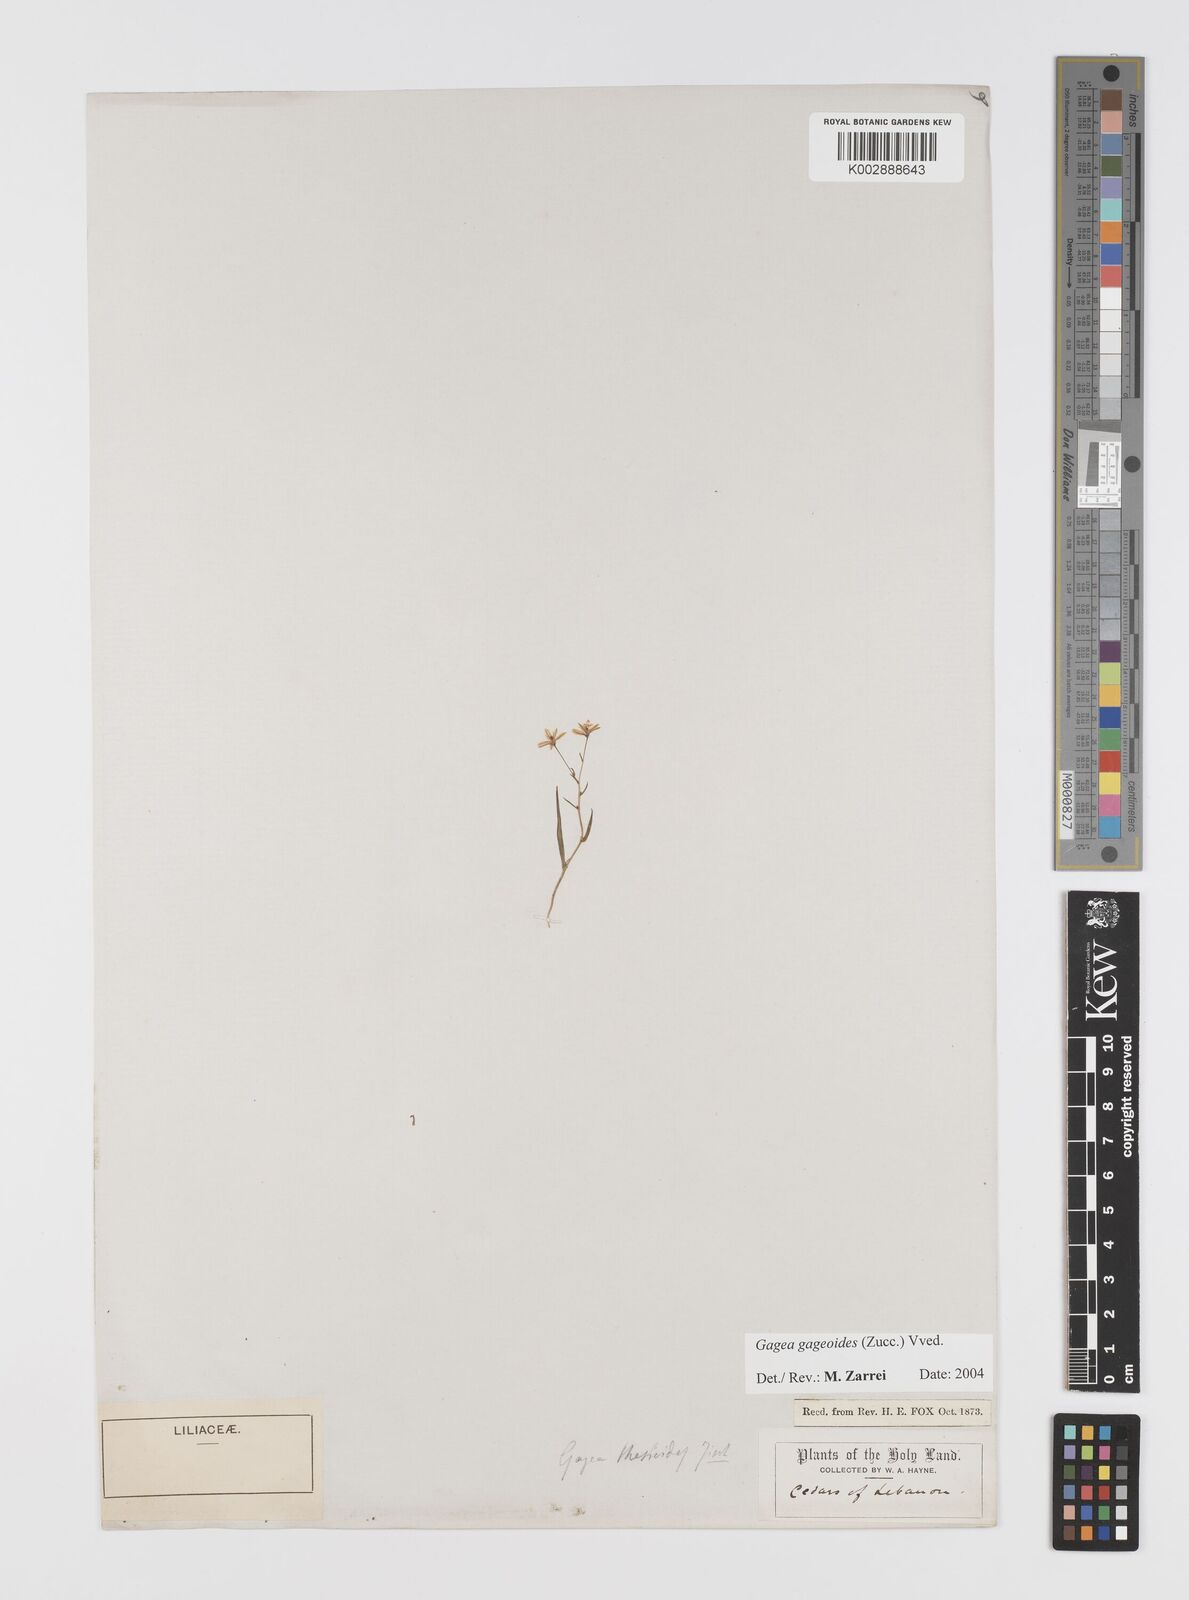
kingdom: Plantae
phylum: Tracheophyta
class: Liliopsida
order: Liliales
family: Liliaceae
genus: Gagea
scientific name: Gagea gageoides
